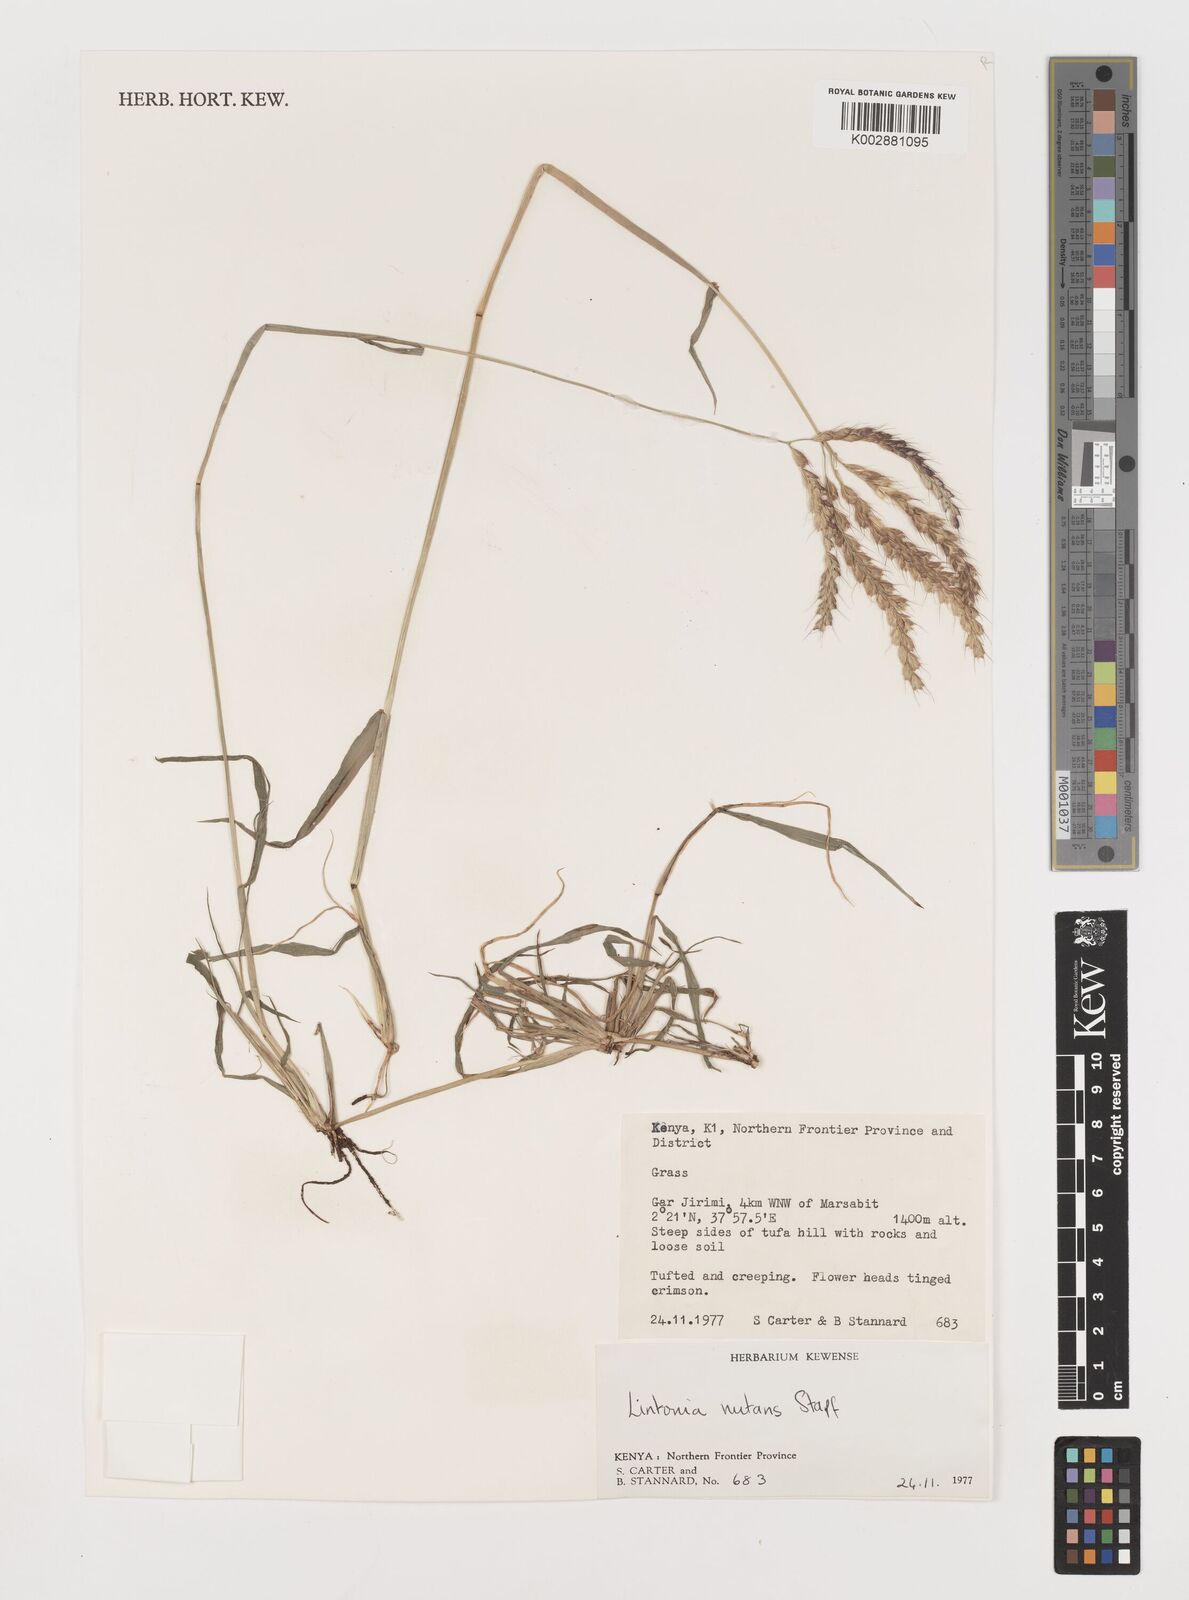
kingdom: Plantae
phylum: Tracheophyta
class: Liliopsida
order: Poales
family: Poaceae
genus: Chloris
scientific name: Chloris nutans
